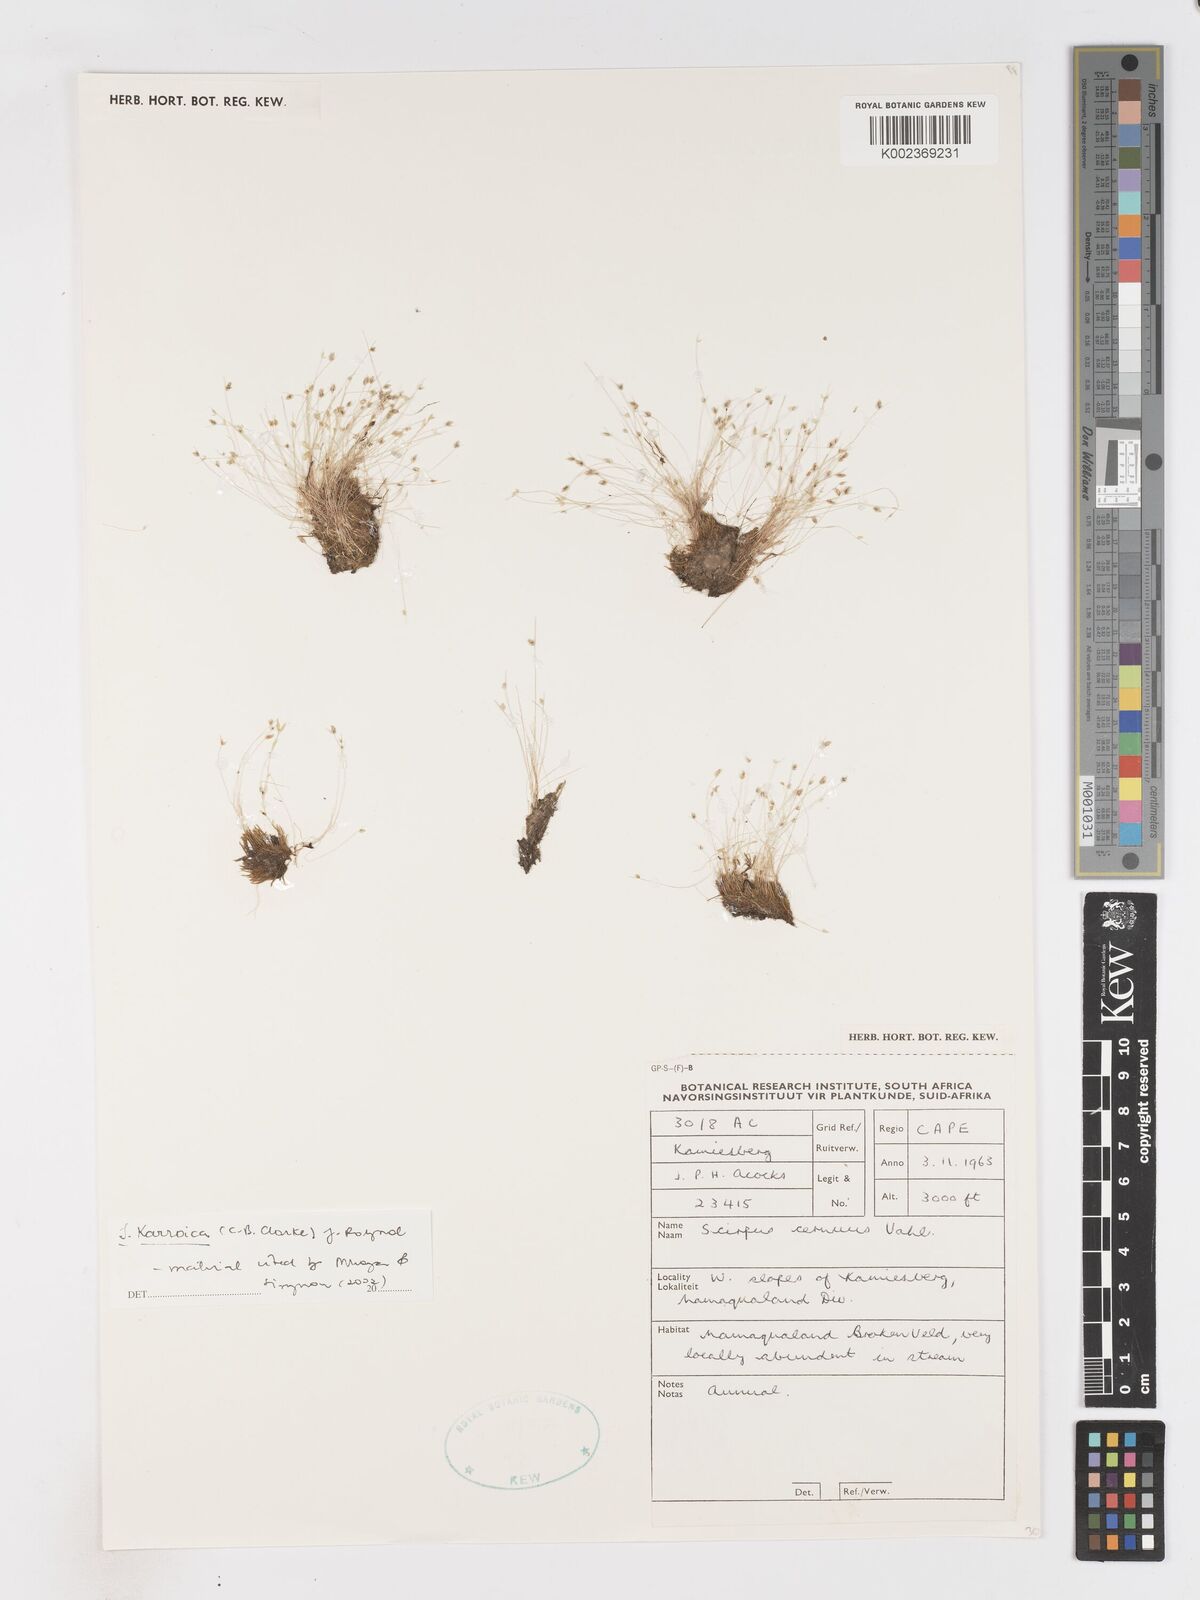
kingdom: Plantae
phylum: Tracheophyta
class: Liliopsida
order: Poales
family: Cyperaceae
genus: Isolepis
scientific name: Isolepis karroica
